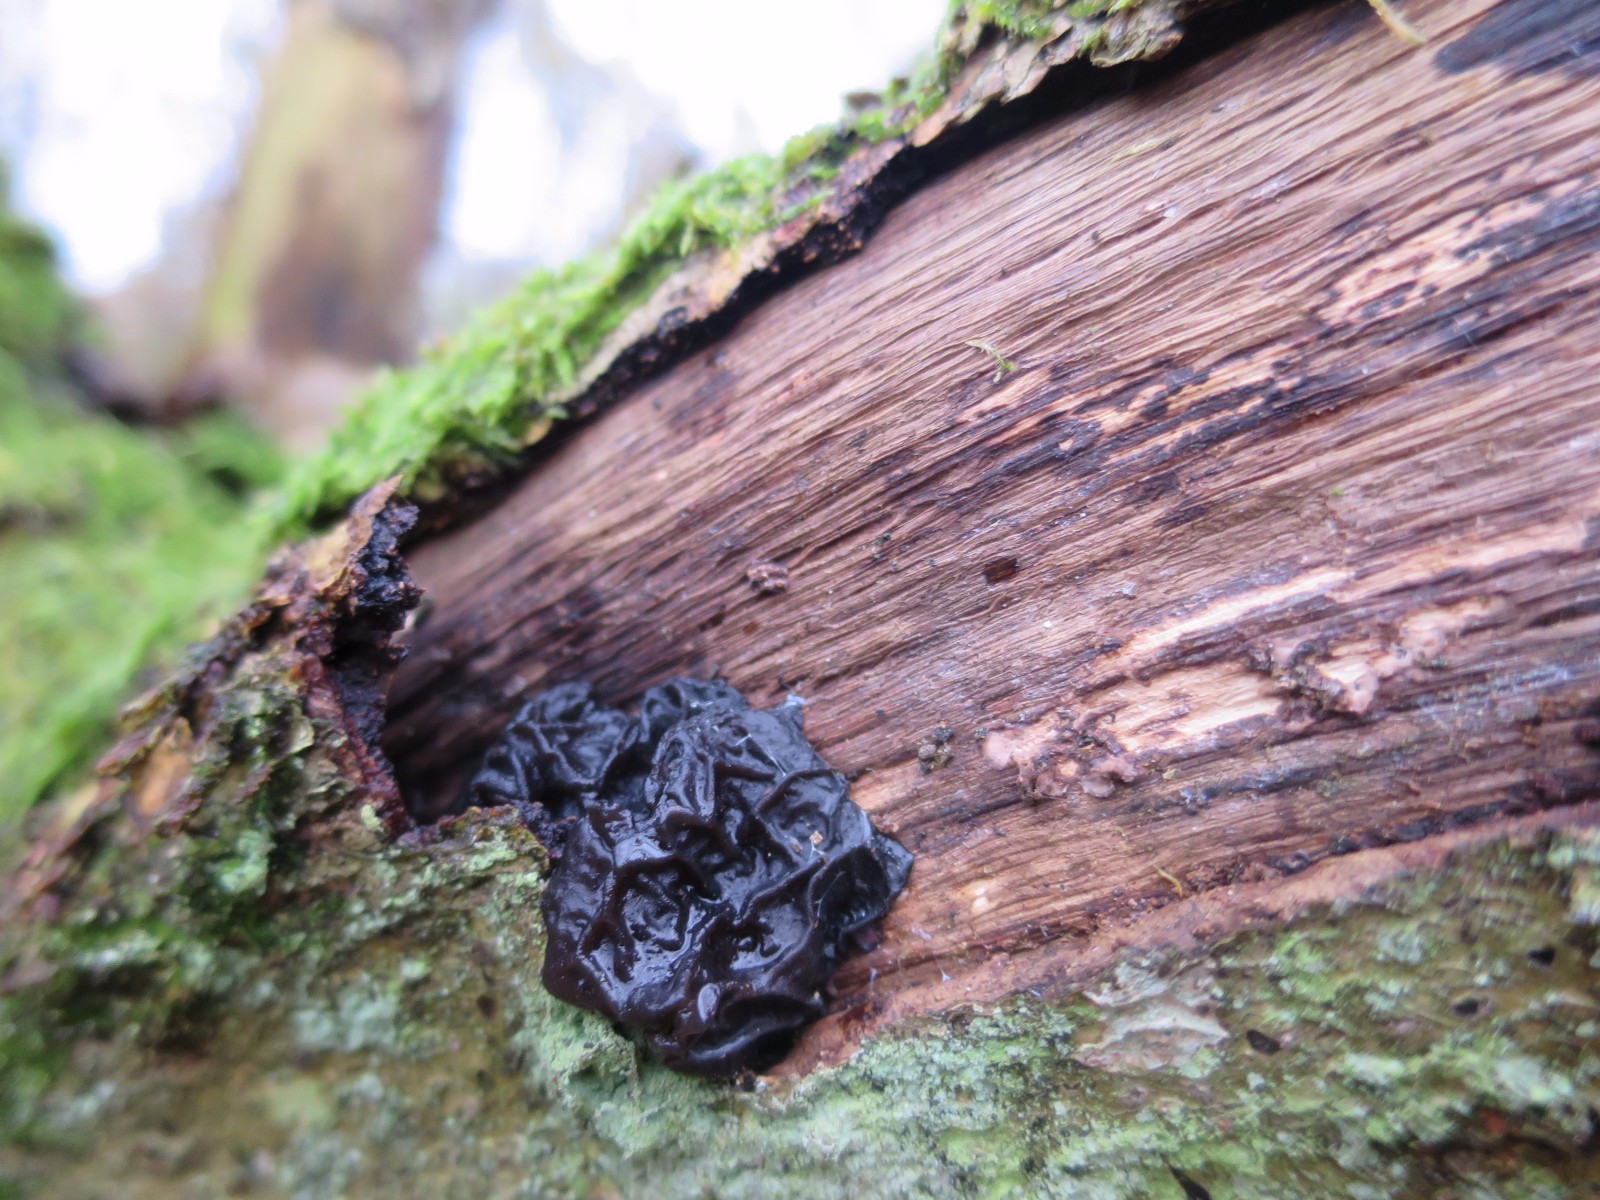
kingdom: Fungi
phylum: Basidiomycota
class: Agaricomycetes
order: Auriculariales
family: Auriculariaceae
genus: Exidia
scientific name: Exidia glandulosa
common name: ege-bævretop
